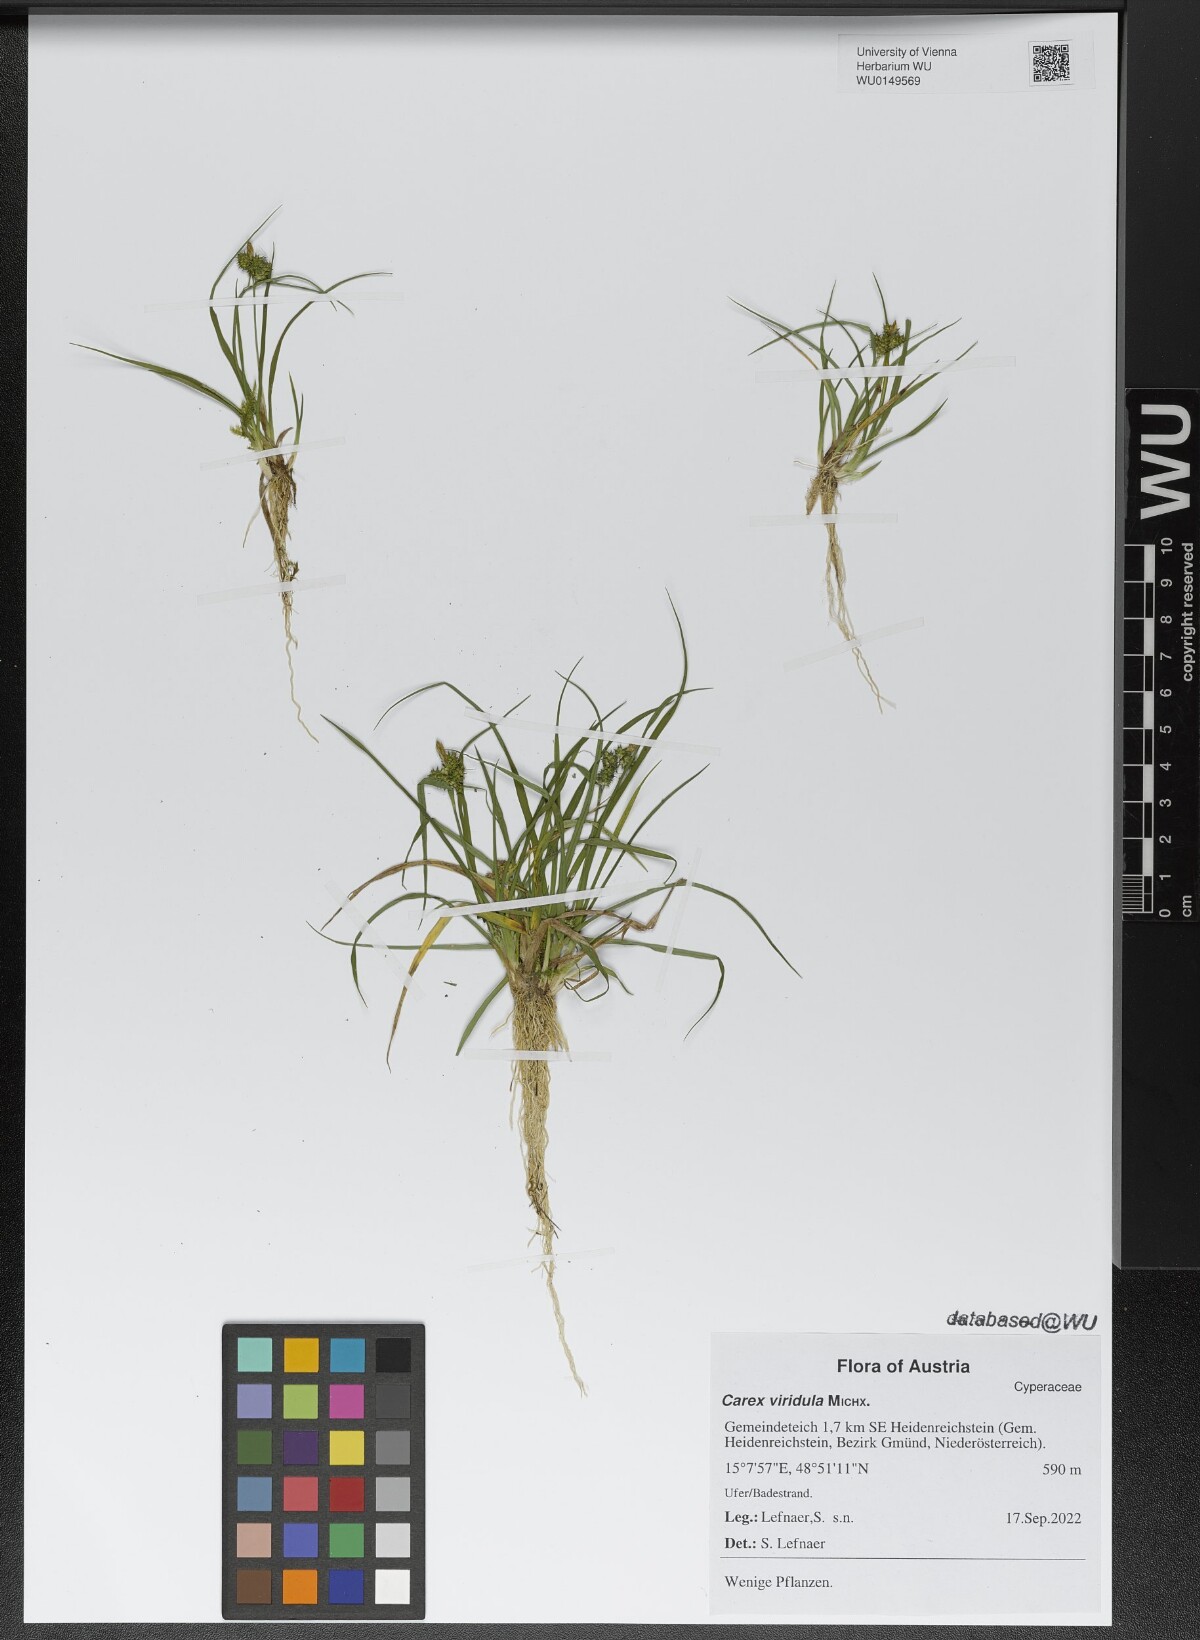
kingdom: Plantae
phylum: Tracheophyta
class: Liliopsida
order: Poales
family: Cyperaceae
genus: Carex
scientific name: Carex oederi
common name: Common & small-fruited yellow-sedge
